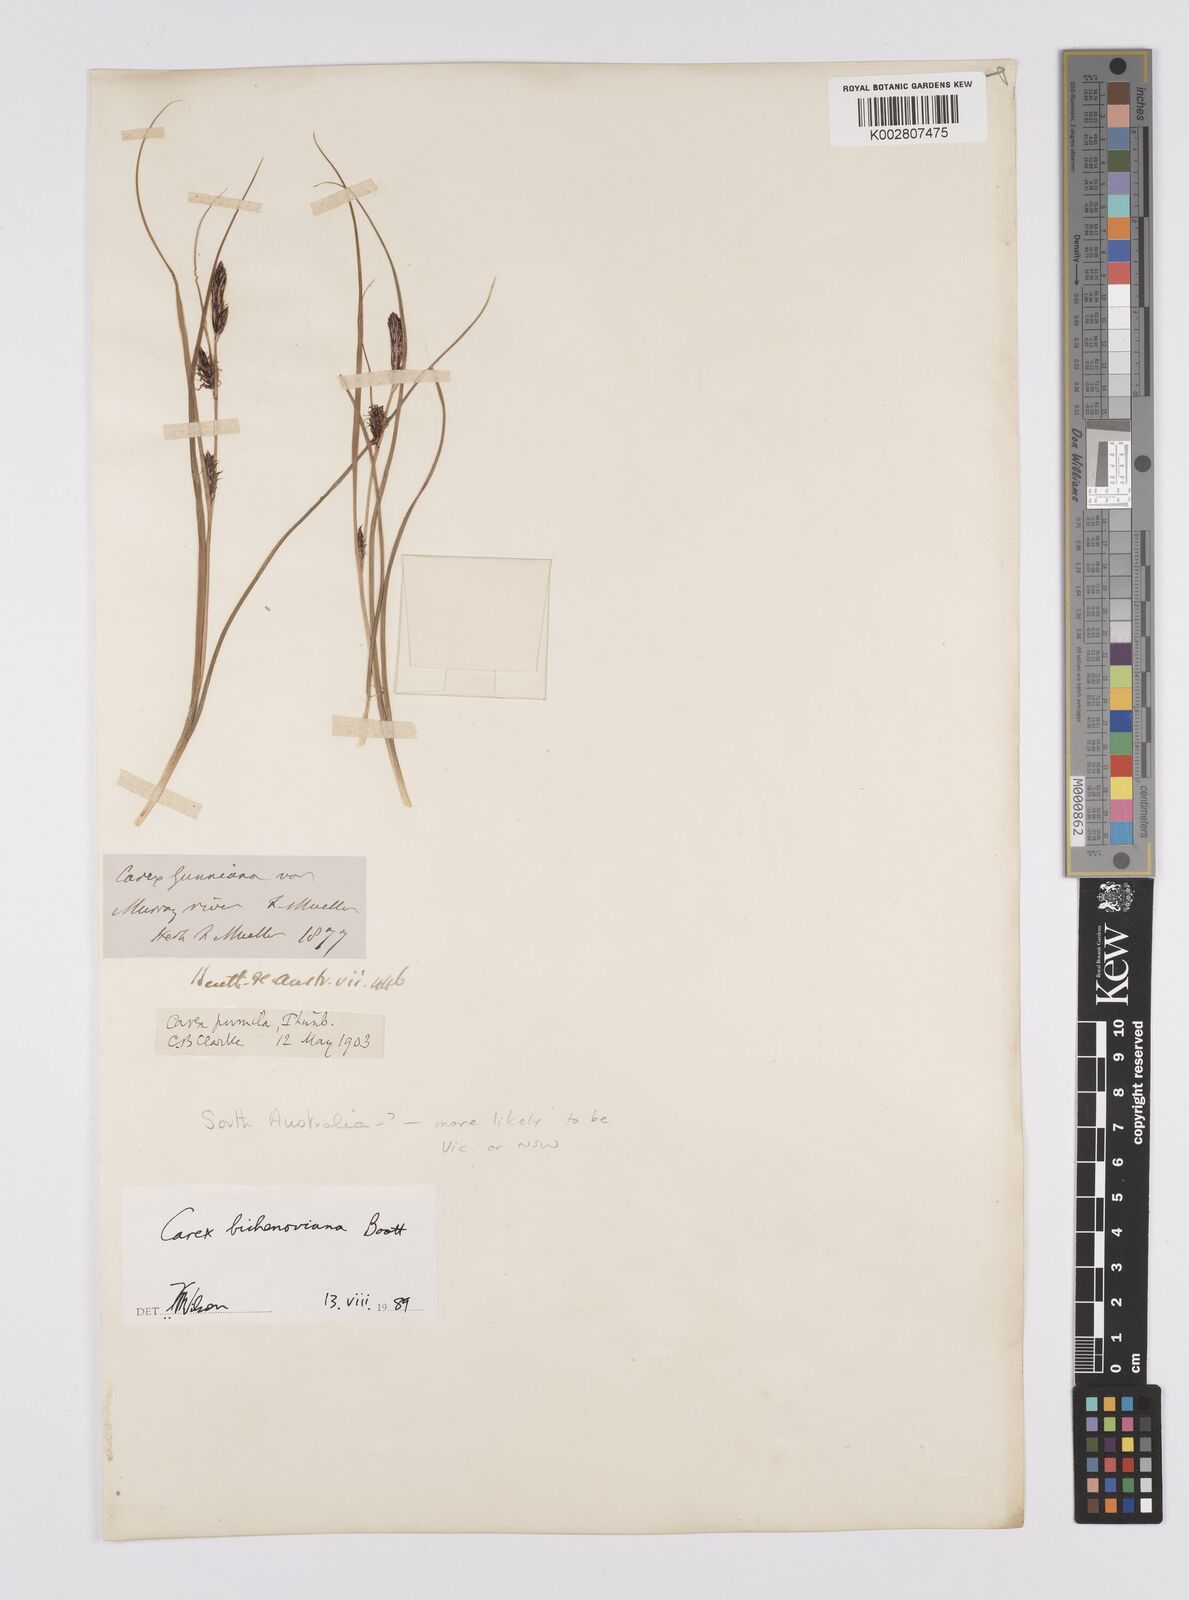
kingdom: Plantae
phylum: Tracheophyta
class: Liliopsida
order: Poales
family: Cyperaceae
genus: Carex
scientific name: Carex bichenoviana
